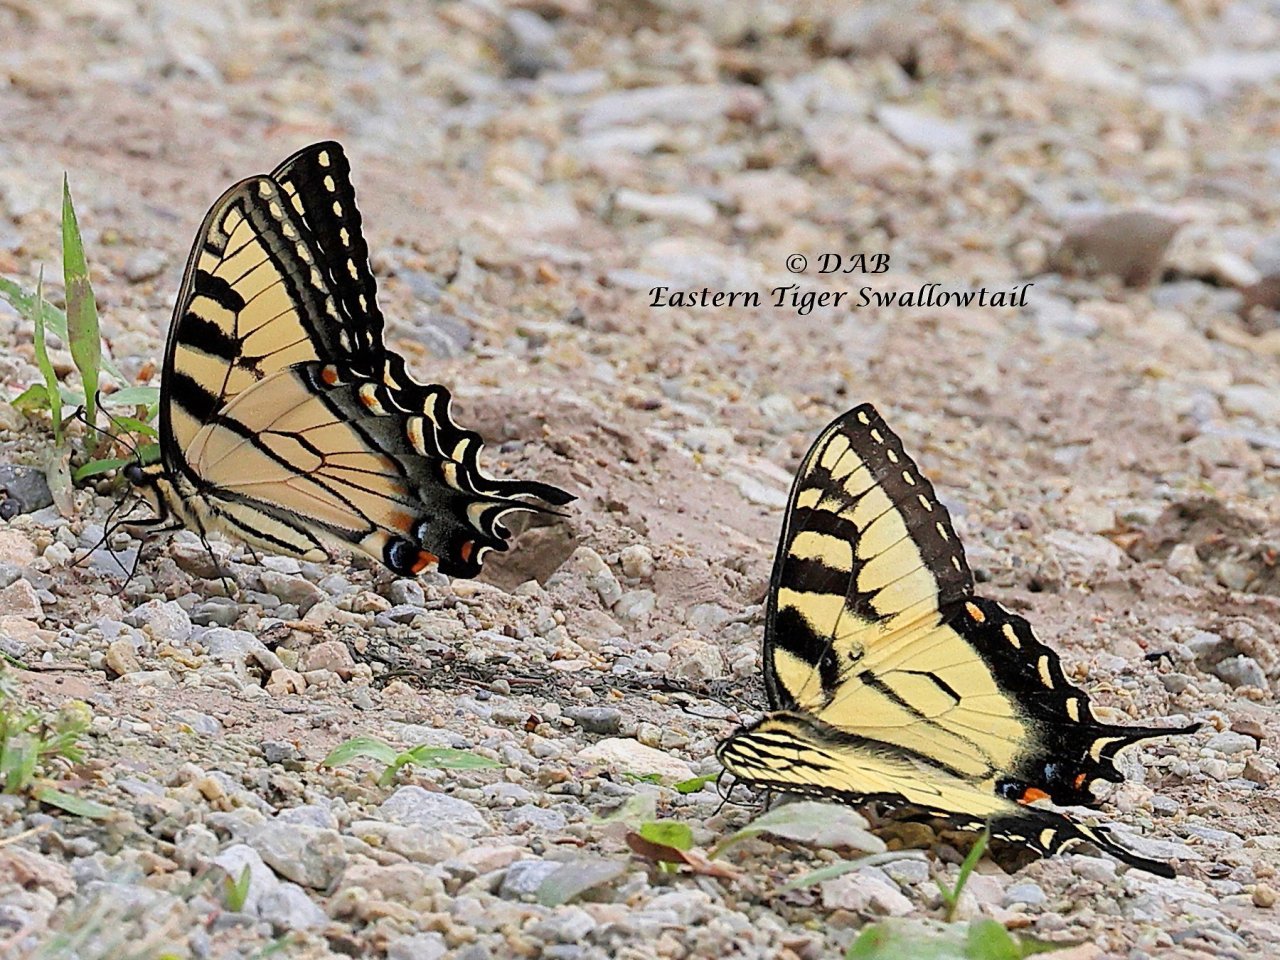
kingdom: Animalia
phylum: Arthropoda
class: Insecta
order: Lepidoptera
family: Papilionidae
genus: Papilio
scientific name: Papilio
